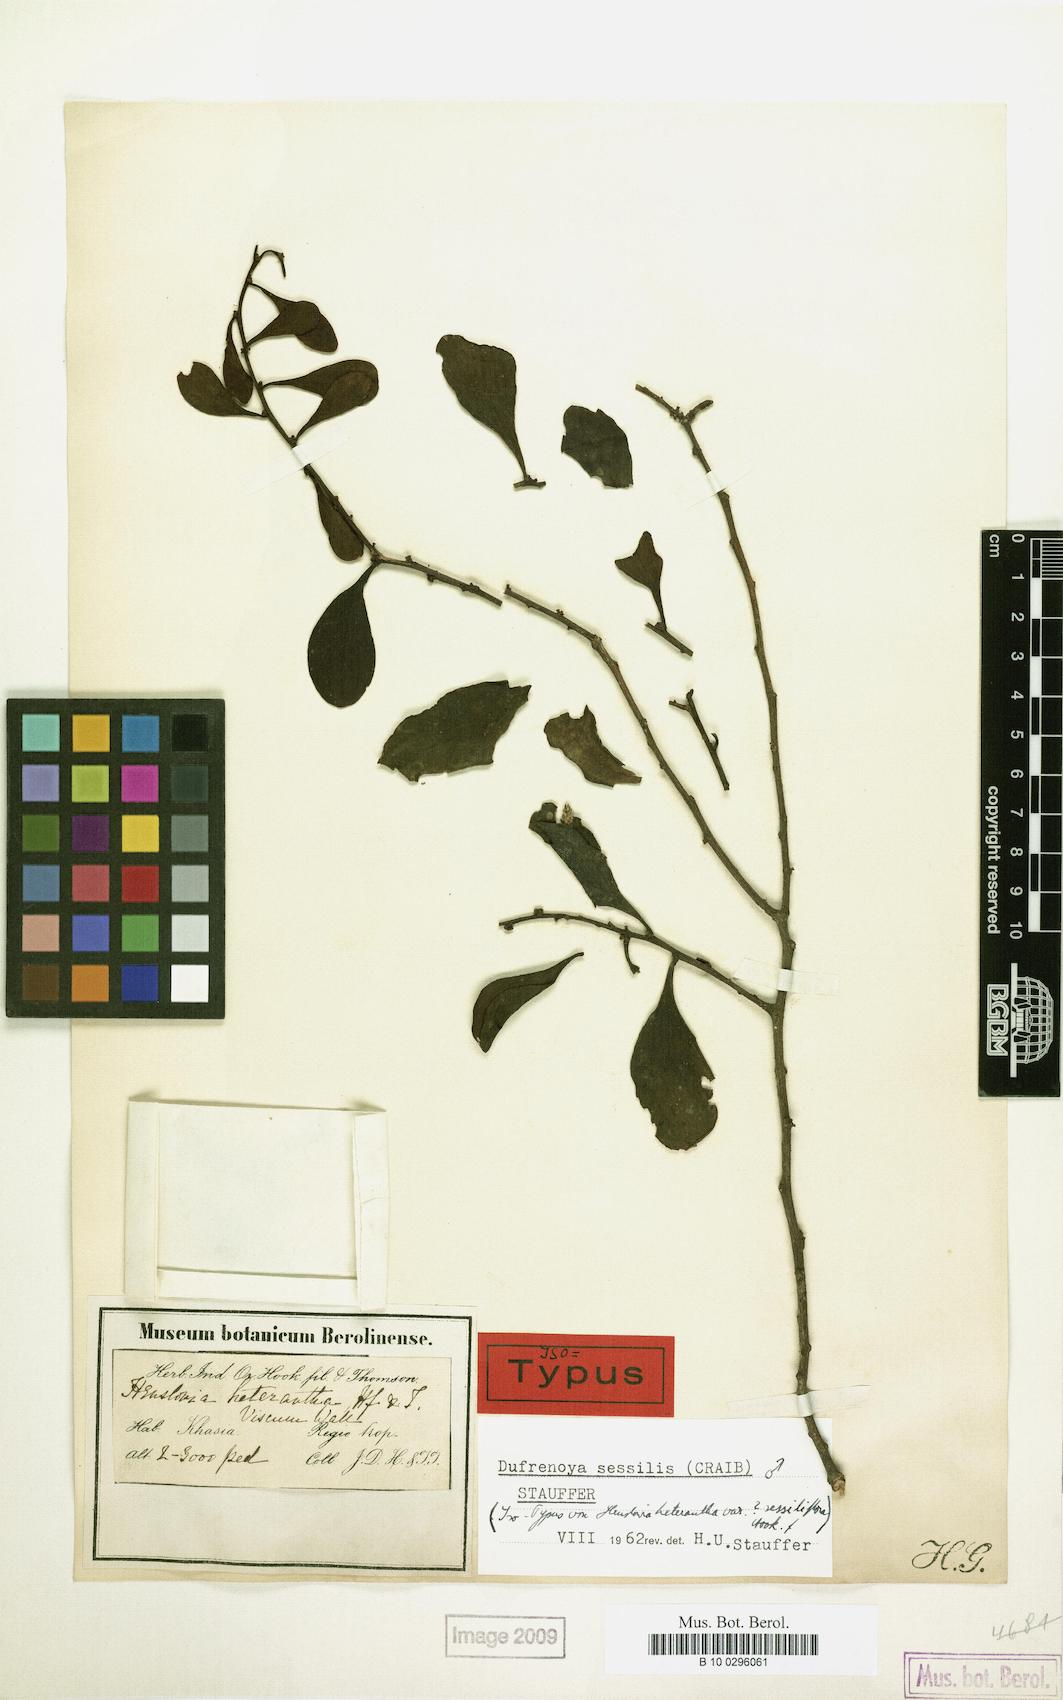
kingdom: Plantae
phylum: Tracheophyta
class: Magnoliopsida
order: Santalales
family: Amphorogynaceae
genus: Dufrenoya
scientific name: Dufrenoya sessilis
